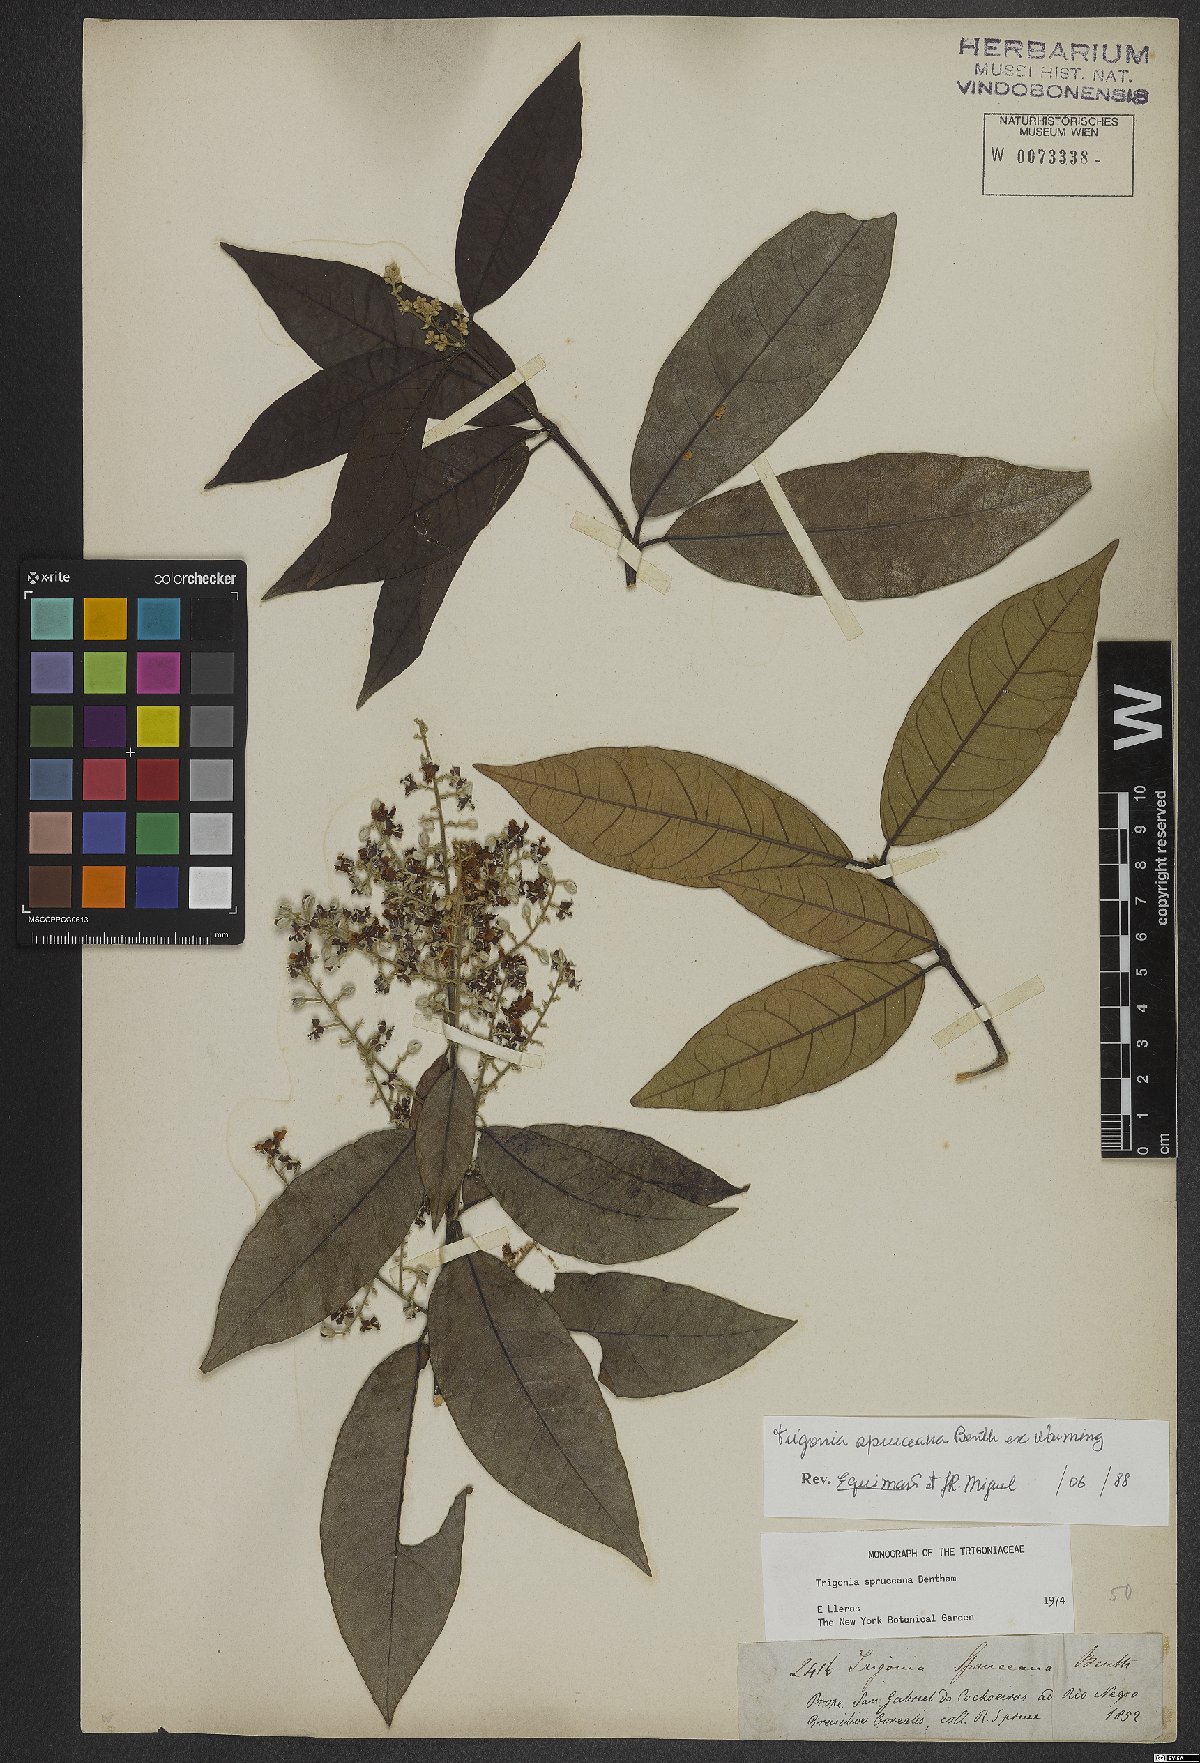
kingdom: Plantae
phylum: Tracheophyta
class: Magnoliopsida
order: Malpighiales
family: Trigoniaceae
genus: Trigonia
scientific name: Trigonia spruceana
